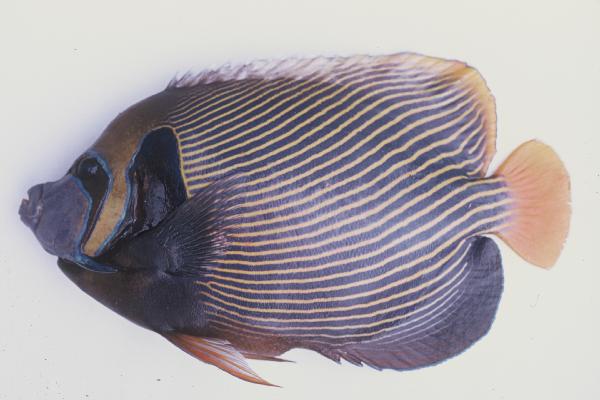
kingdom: Animalia
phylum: Chordata
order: Perciformes
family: Pomacanthidae
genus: Pomacanthus
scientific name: Pomacanthus imperator
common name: Emperor angelfish
